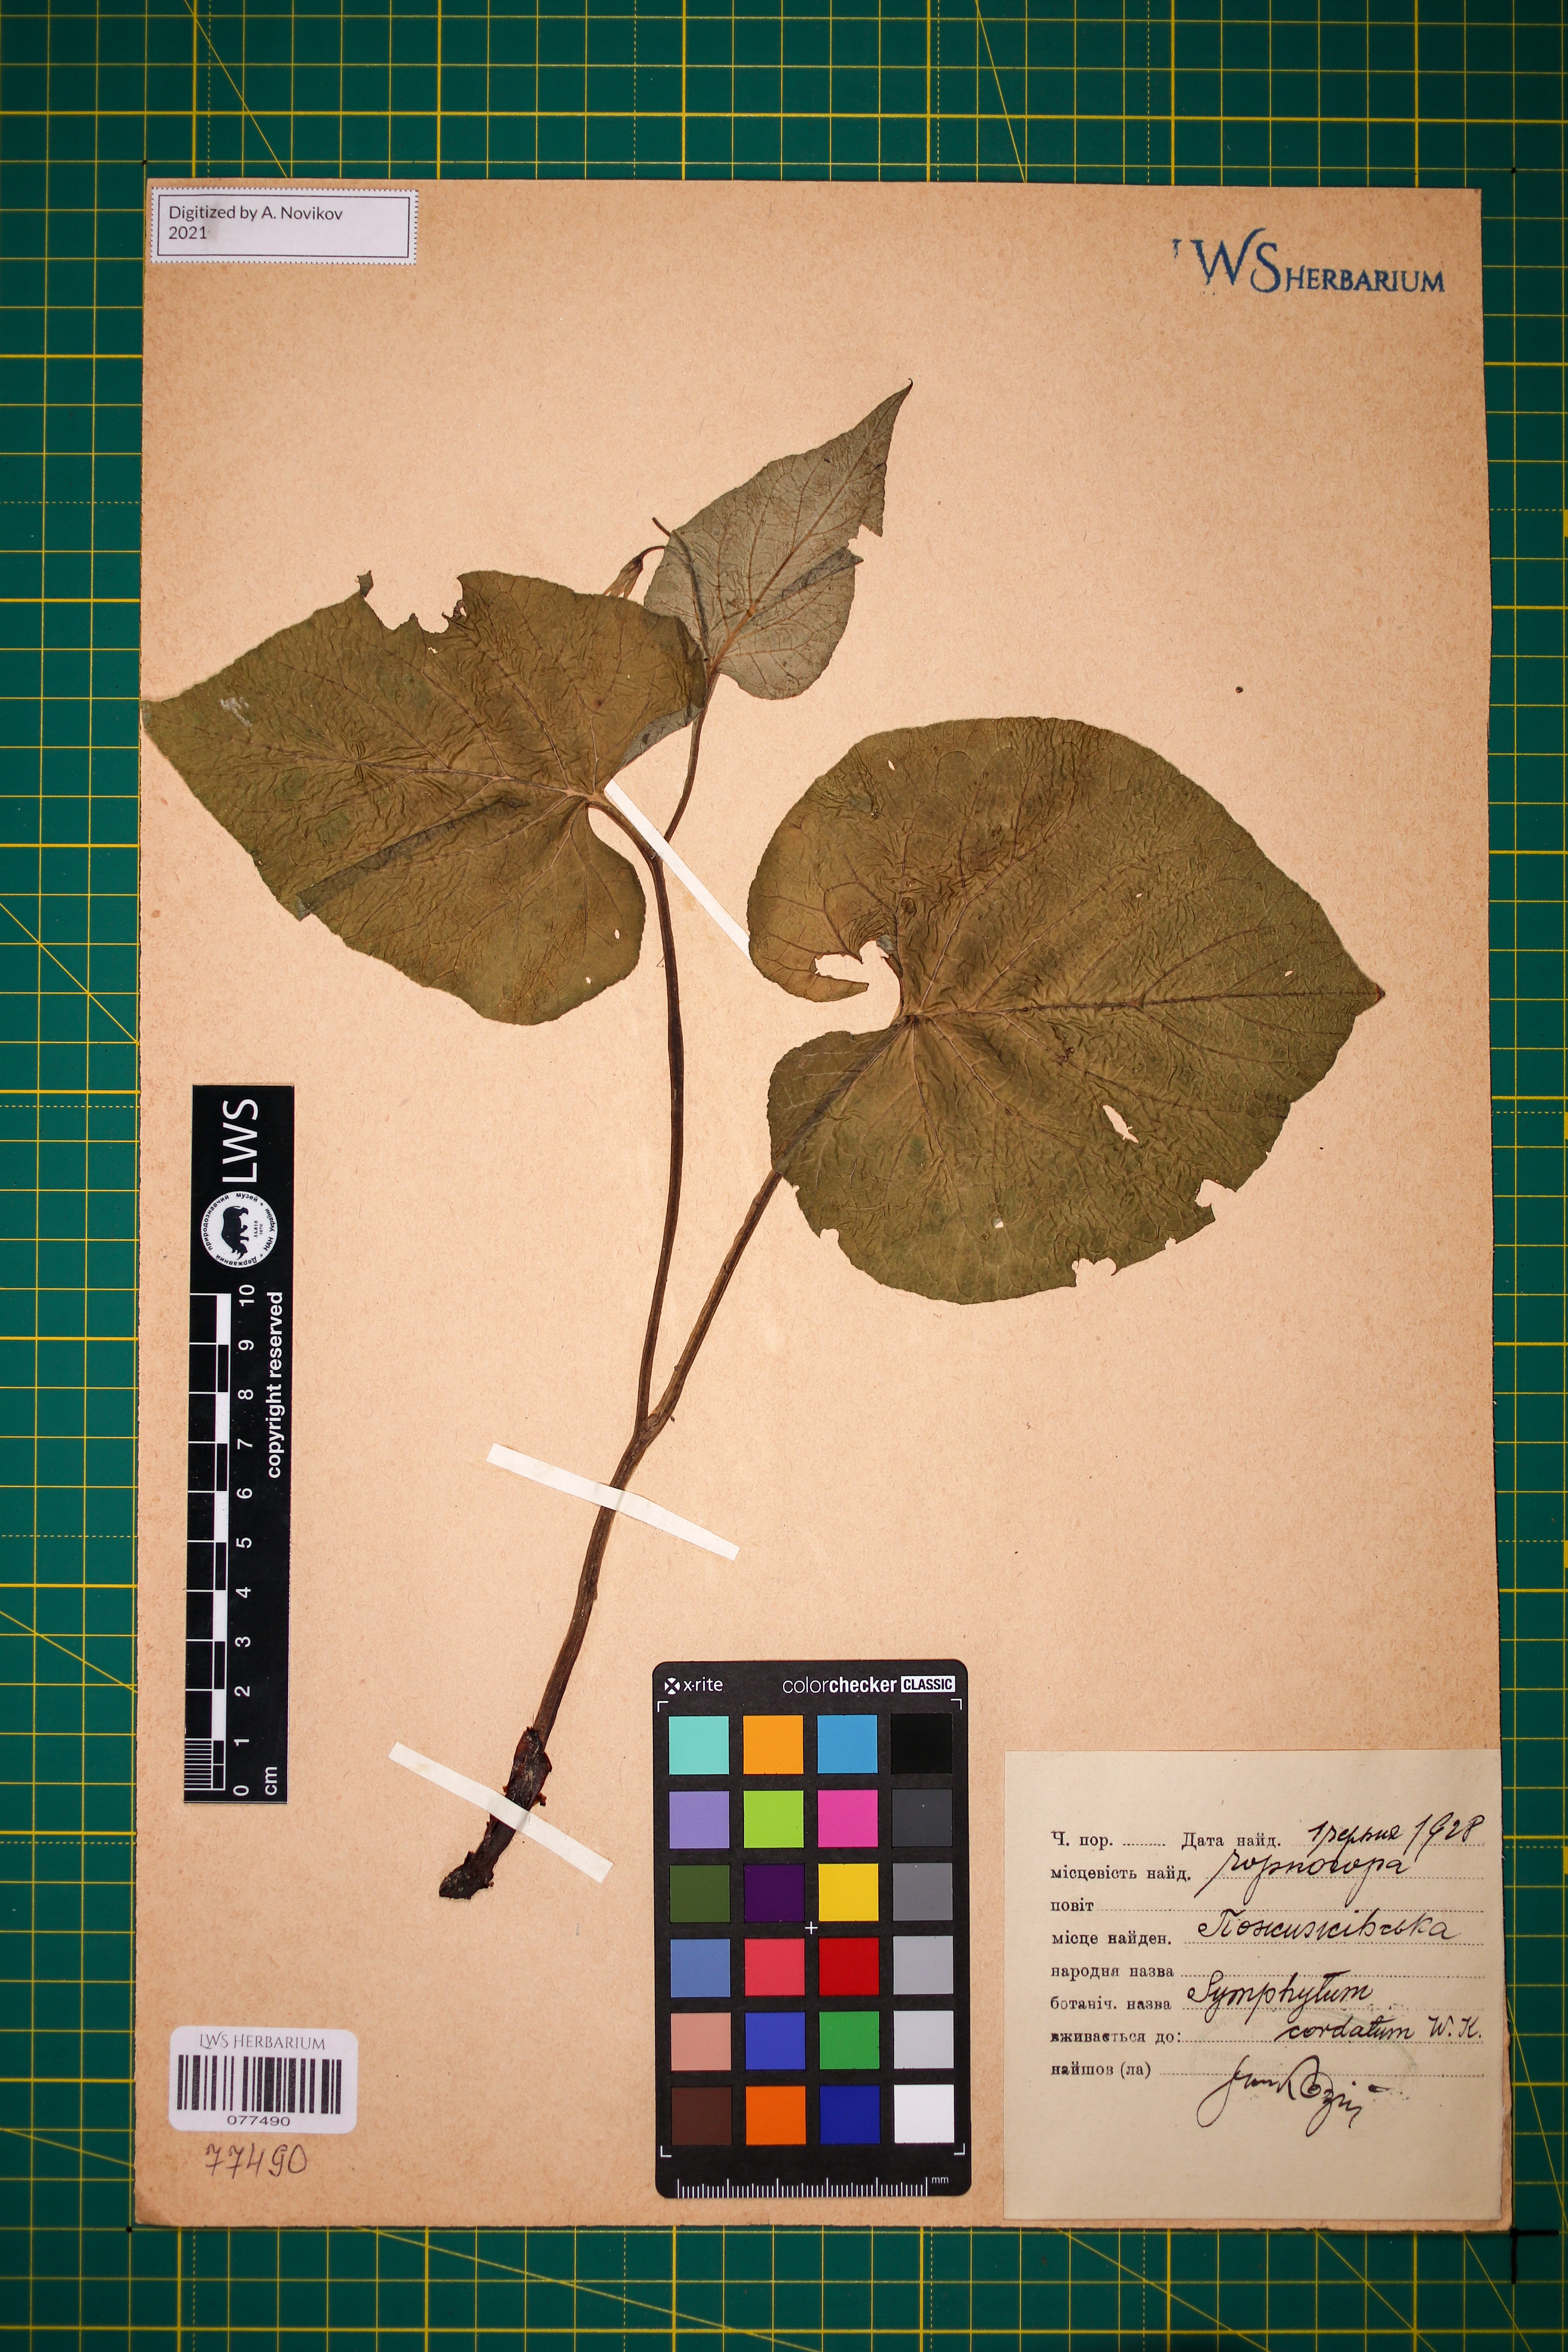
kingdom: Plantae
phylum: Tracheophyta
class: Magnoliopsida
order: Boraginales
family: Boraginaceae
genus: Symphytum
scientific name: Symphytum cordatum
